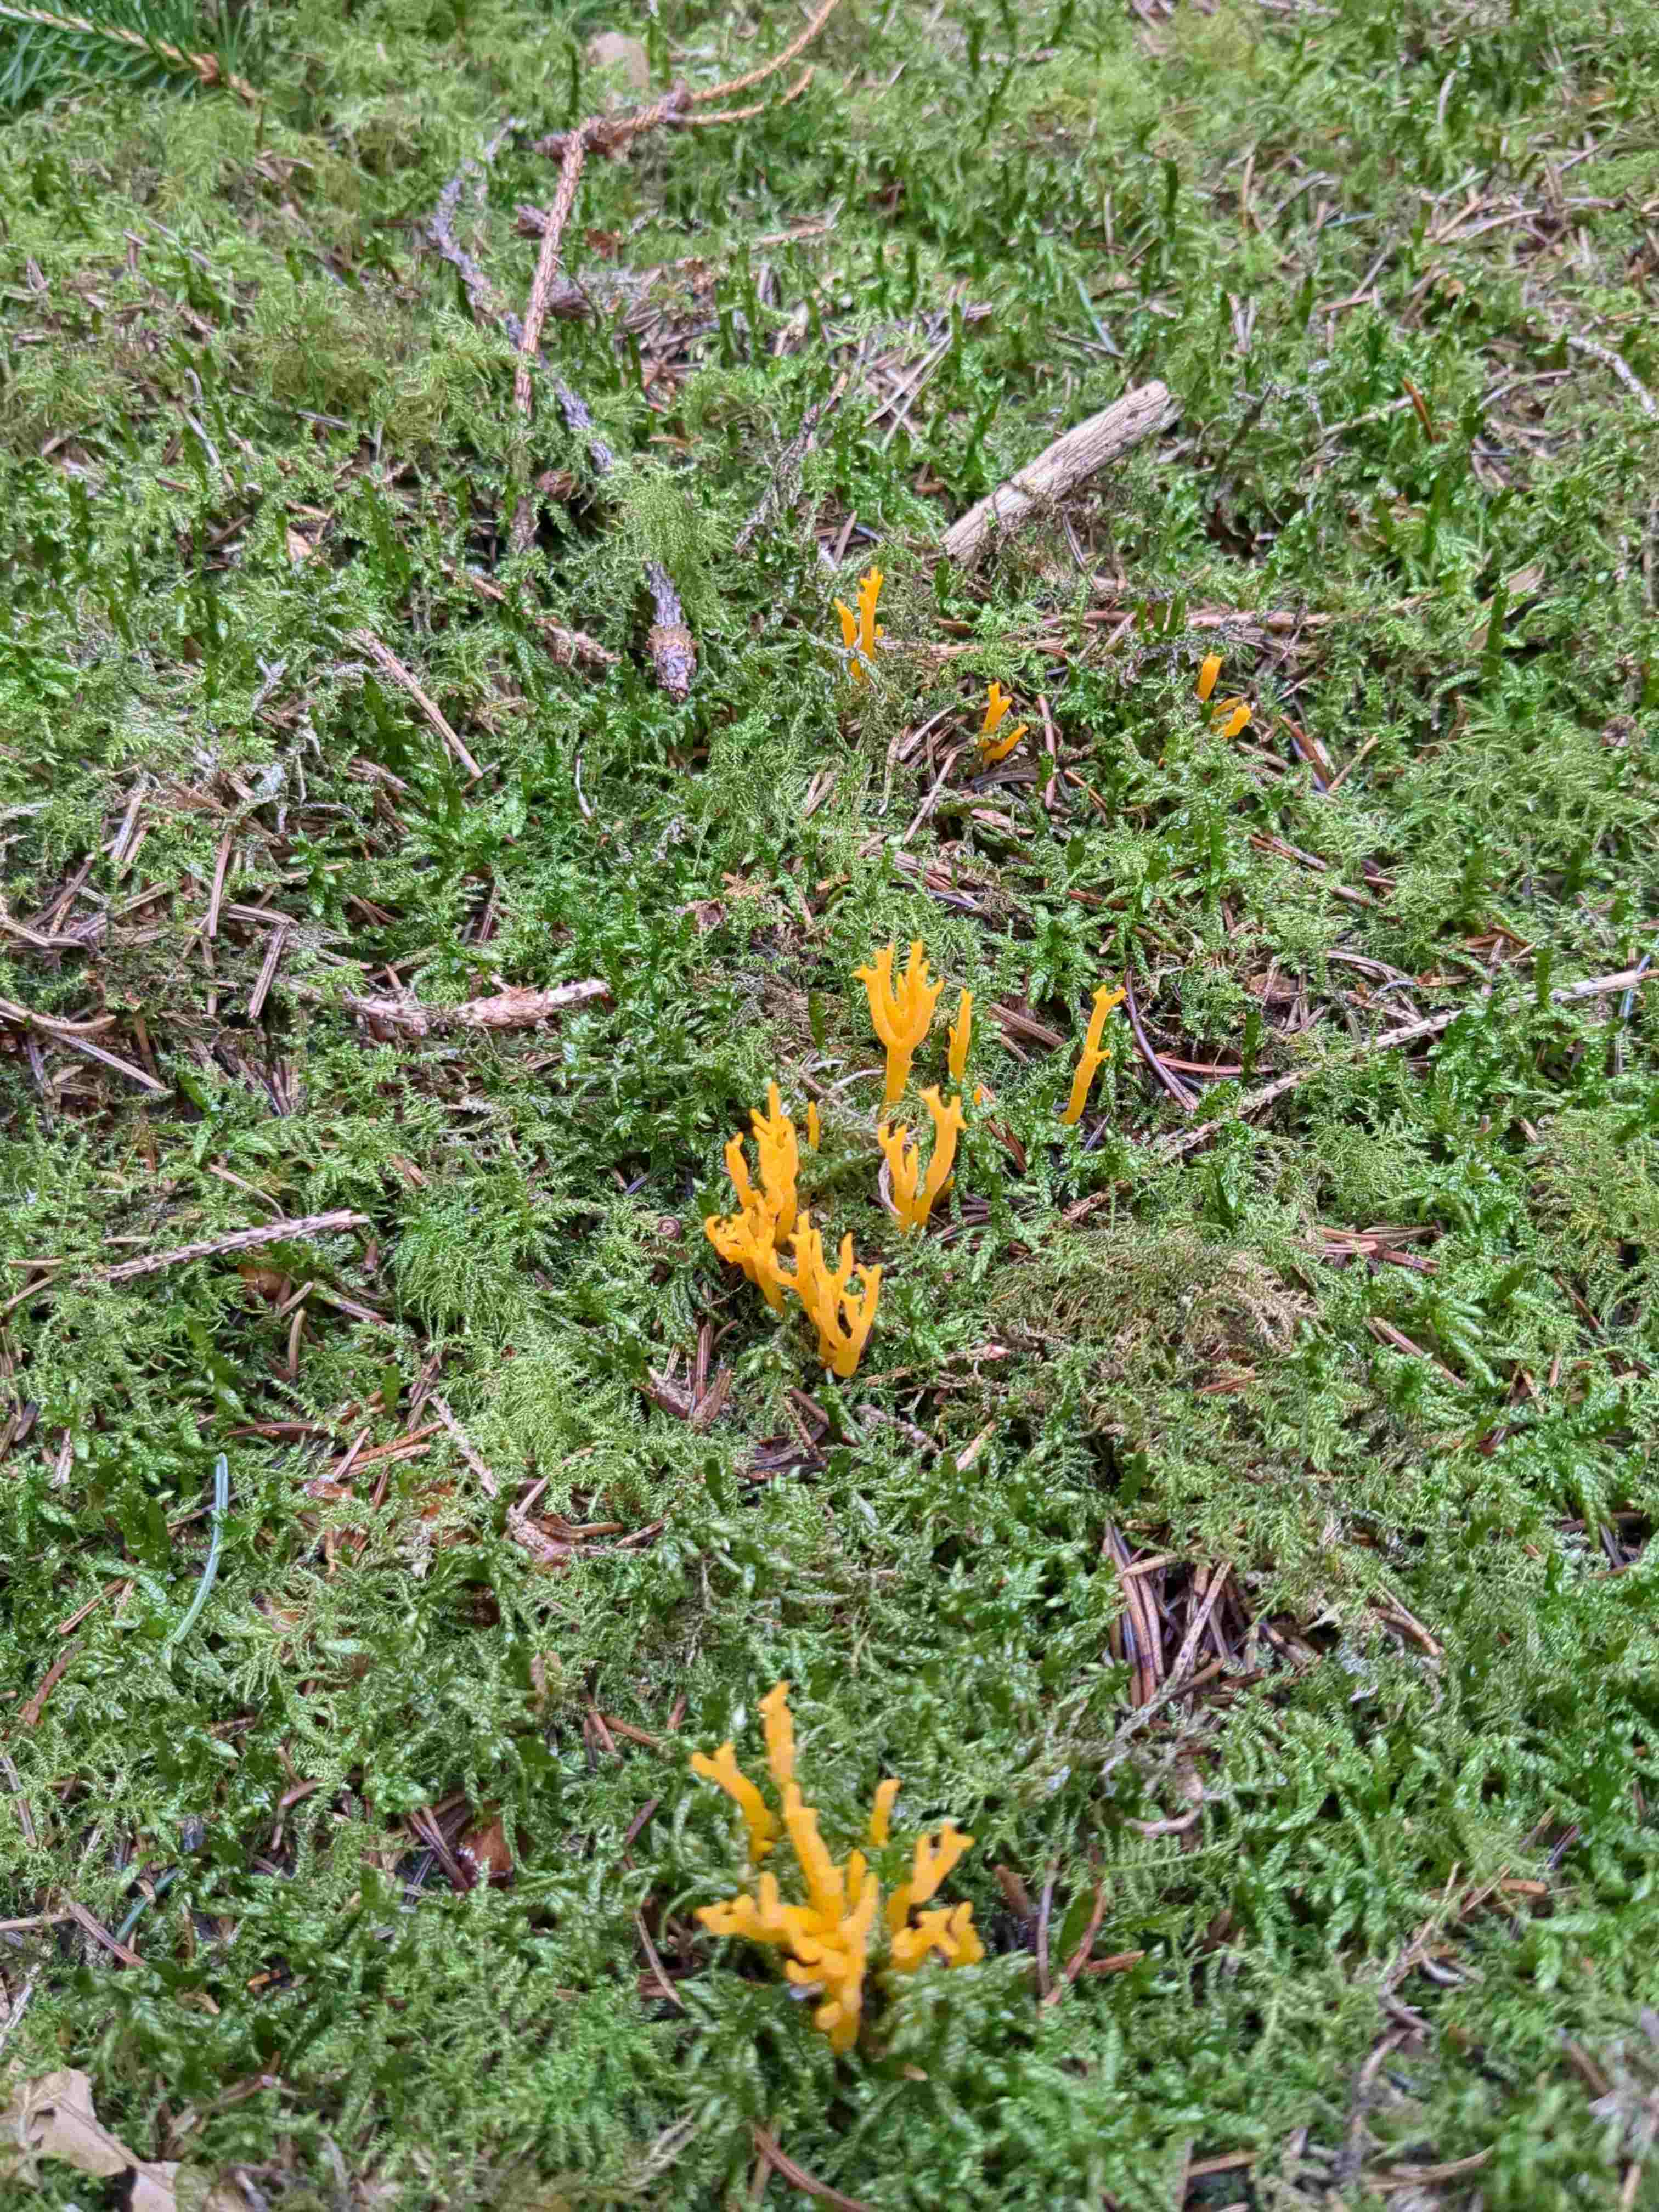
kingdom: Fungi
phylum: Basidiomycota
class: Dacrymycetes
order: Dacrymycetales
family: Dacrymycetaceae
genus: Calocera
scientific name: Calocera viscosa
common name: almindelig guldgaffel
